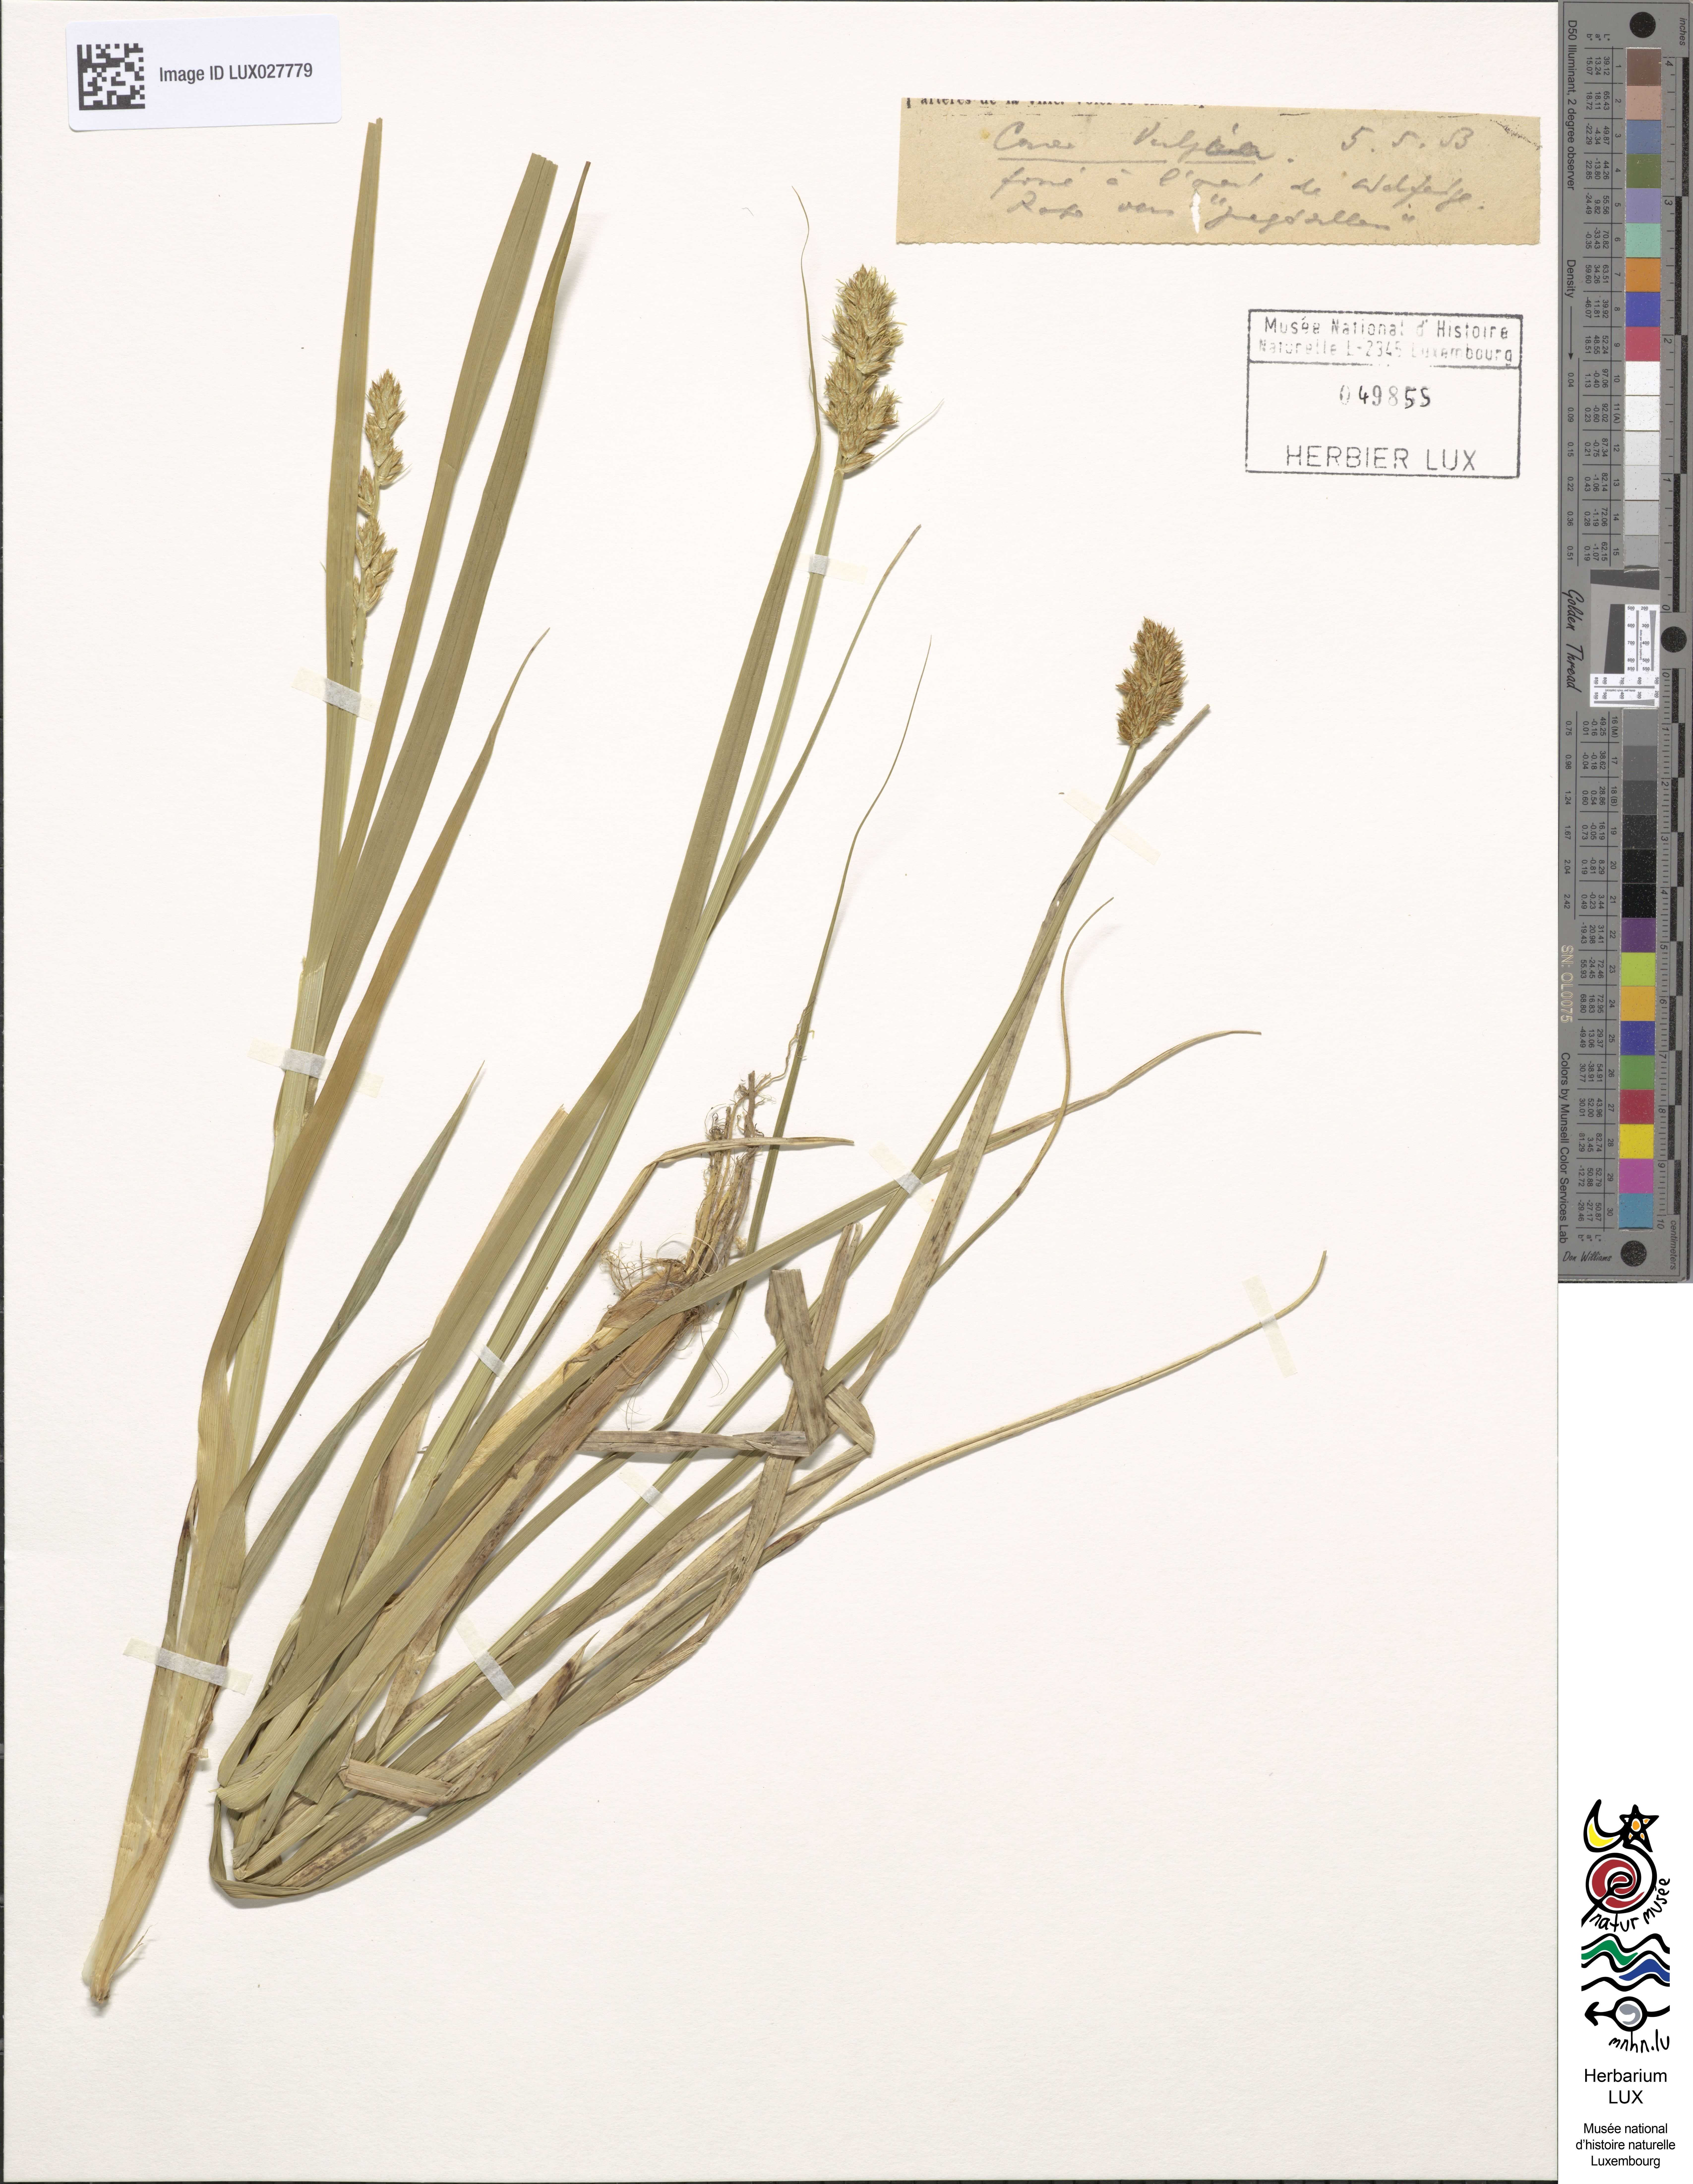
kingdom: Plantae
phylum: Tracheophyta
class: Liliopsida
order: Poales
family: Cyperaceae
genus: Carex
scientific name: Carex vulpina
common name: True fox-sedge
